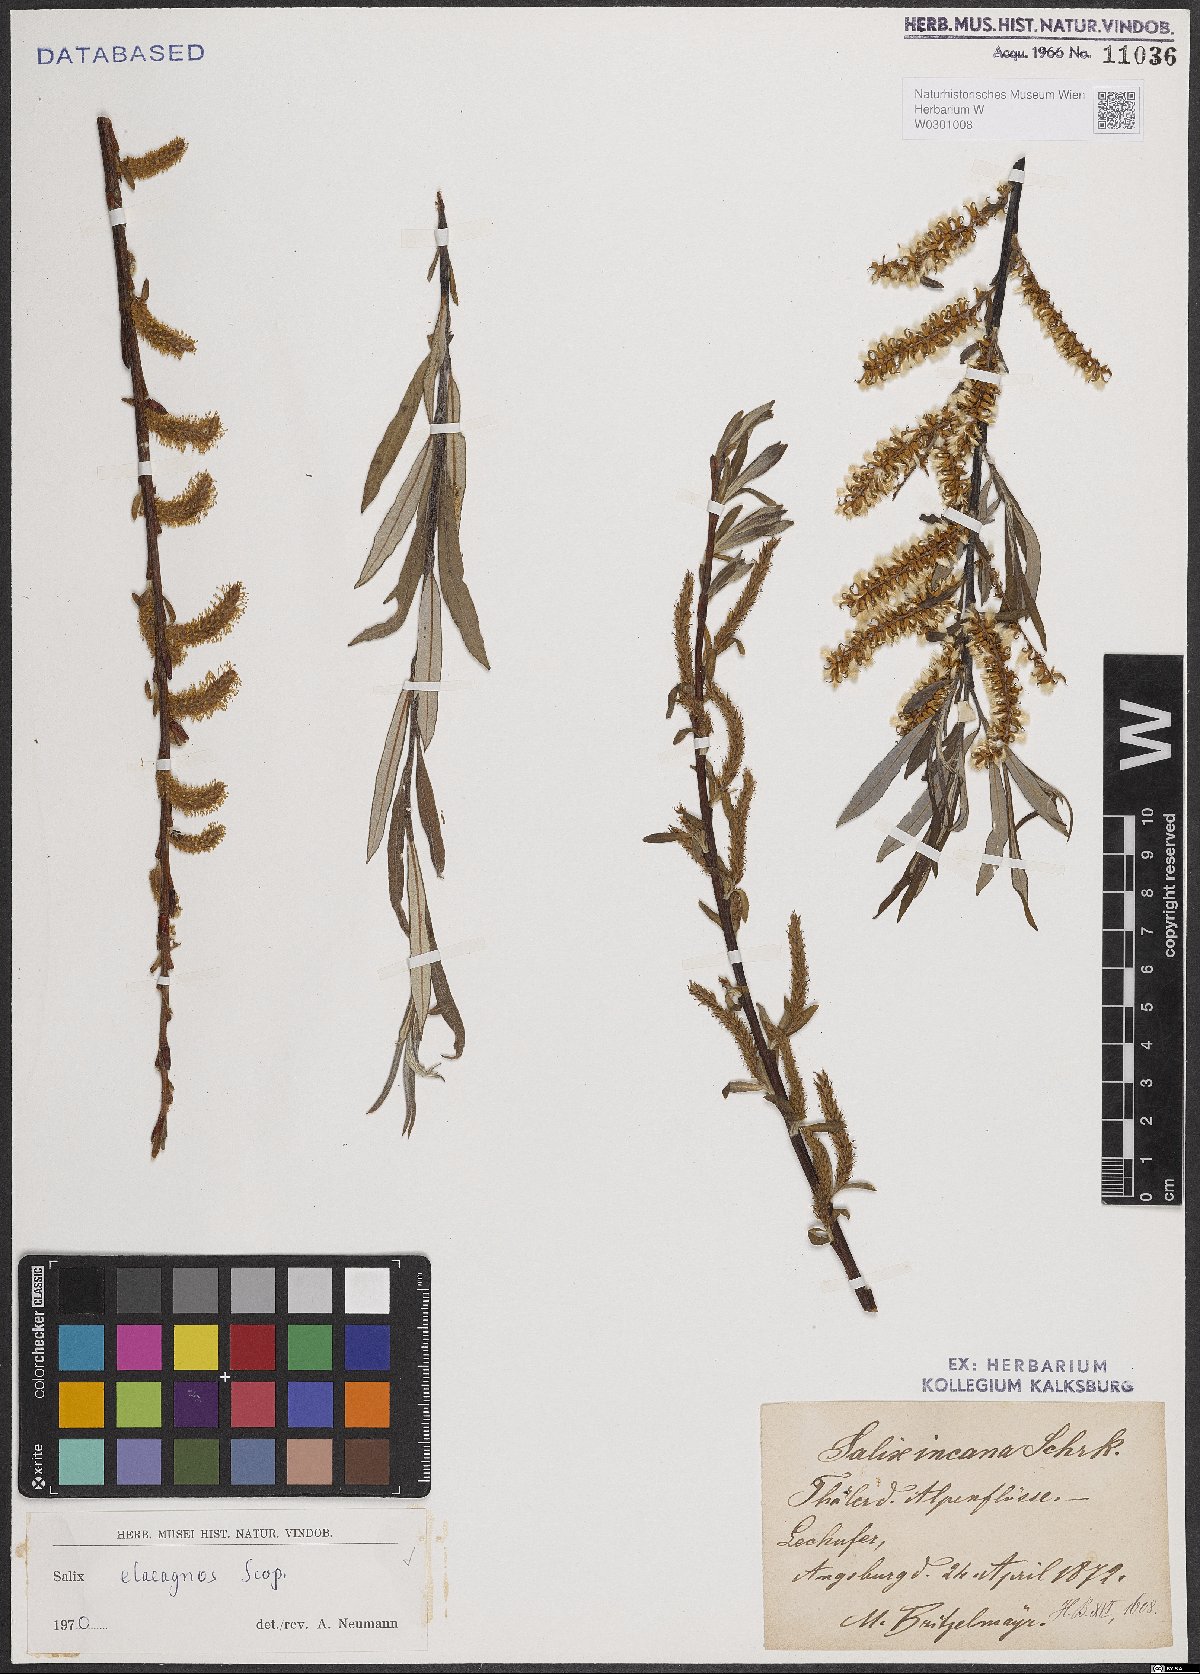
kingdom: Plantae
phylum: Tracheophyta
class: Magnoliopsida
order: Malpighiales
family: Salicaceae
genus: Salix
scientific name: Salix eleagnos
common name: Elaeagnus willow
